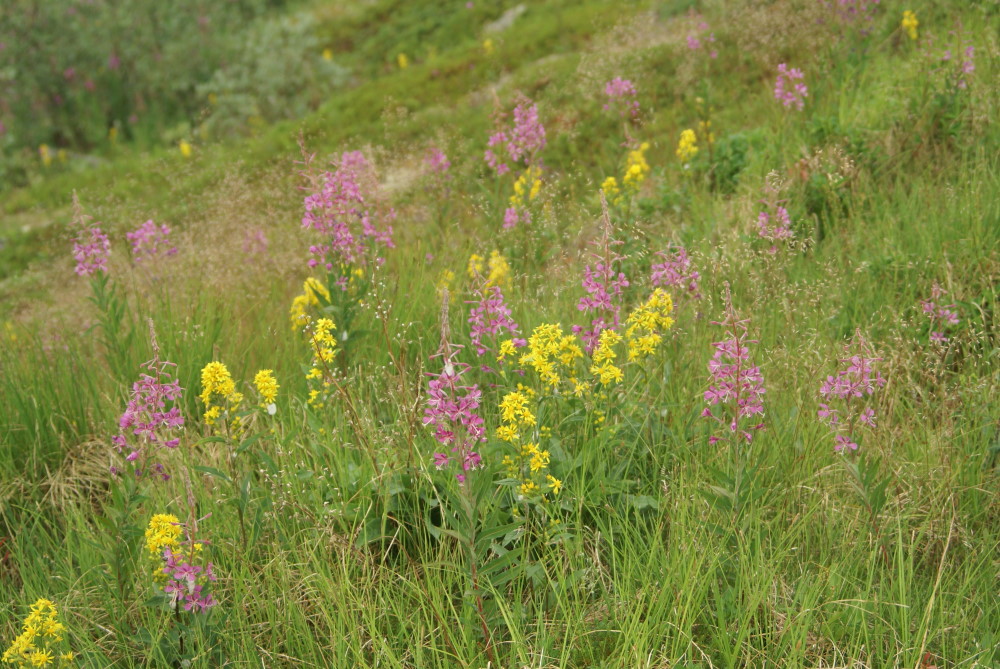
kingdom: Plantae
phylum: Tracheophyta
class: Magnoliopsida
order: Asterales
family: Asteraceae
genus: Solidago
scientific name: Solidago virgaurea
